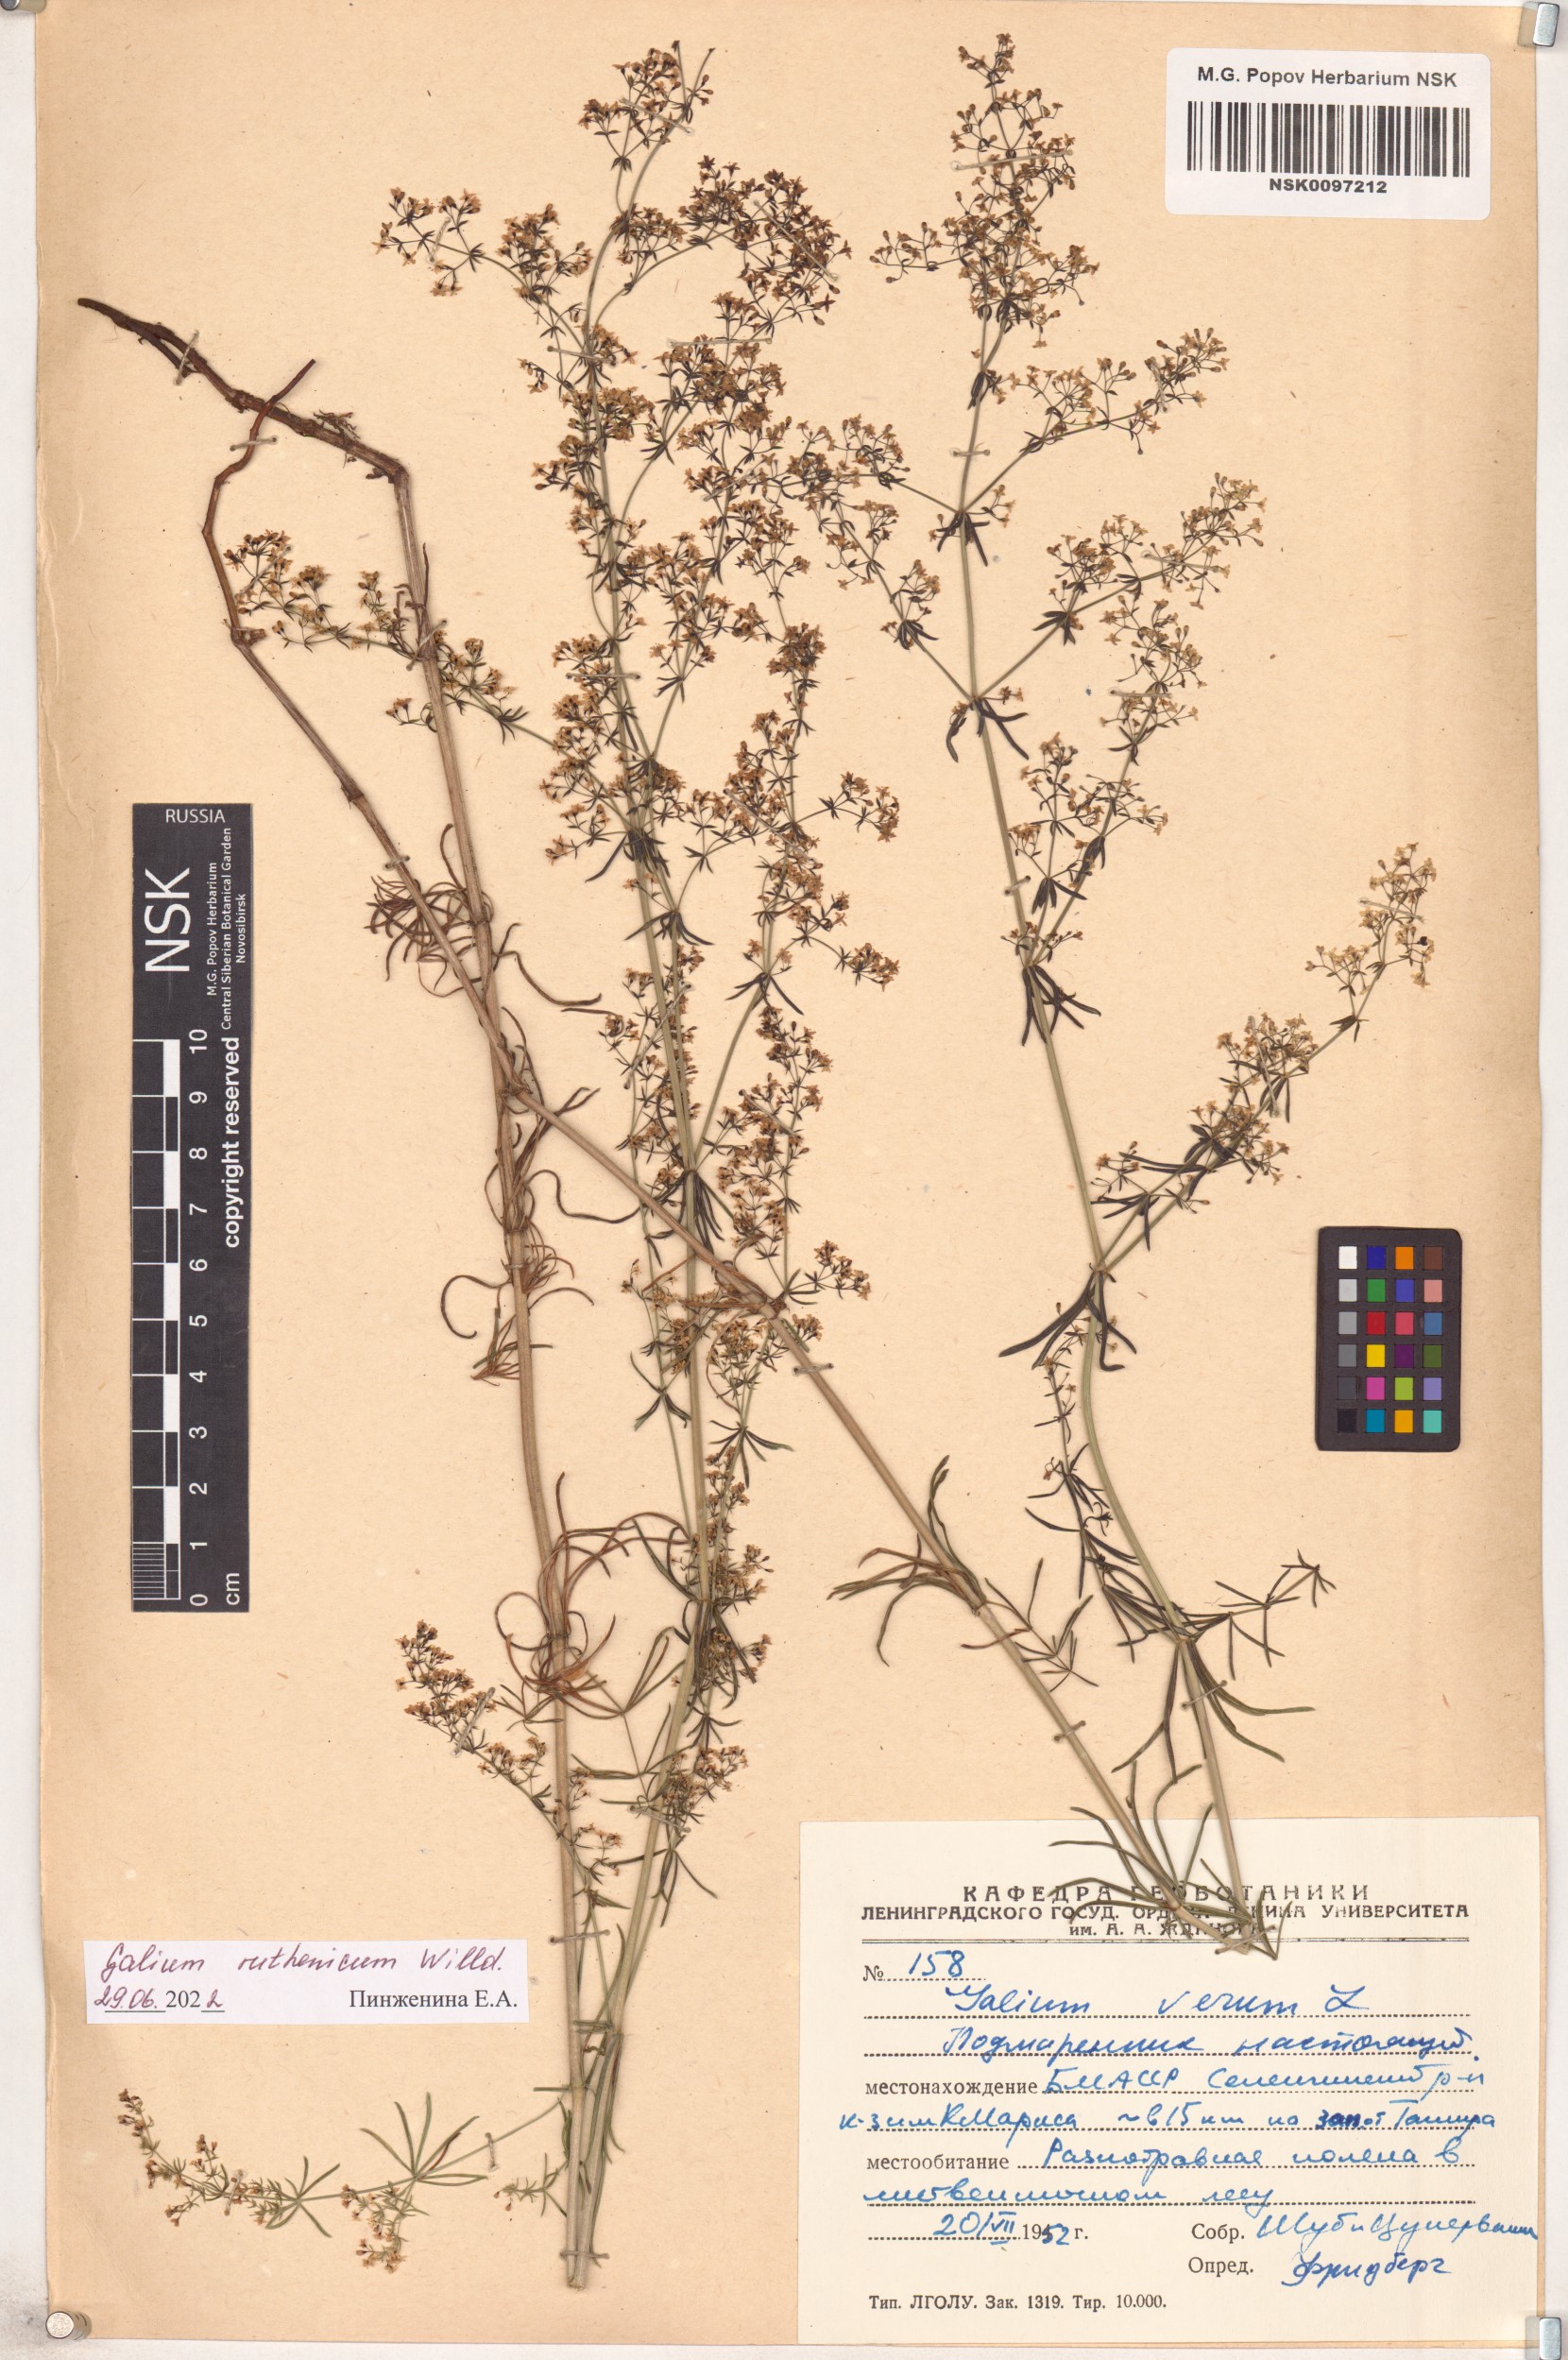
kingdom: Plantae
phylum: Tracheophyta
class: Magnoliopsida
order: Gentianales
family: Rubiaceae
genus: Galium
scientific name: Galium verum
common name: Lady's bedstraw
